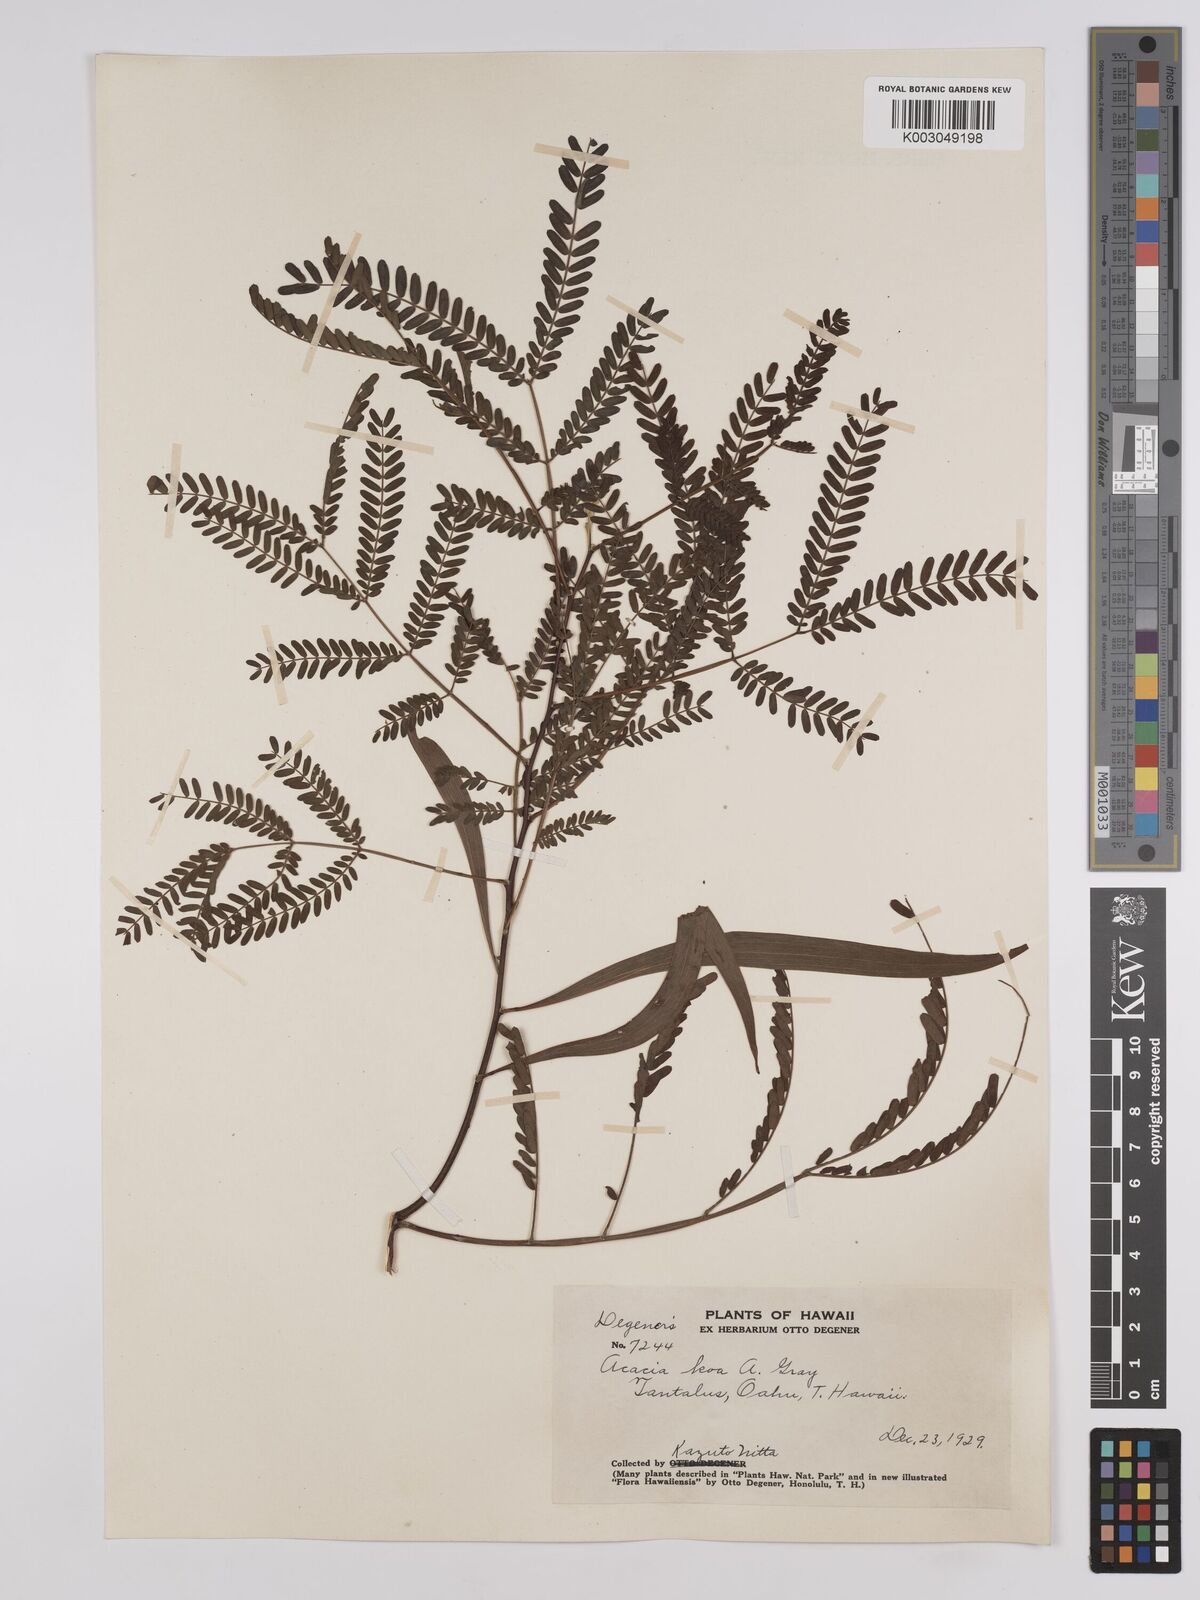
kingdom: Plantae
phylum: Tracheophyta
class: Magnoliopsida
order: Fabales
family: Fabaceae
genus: Acacia
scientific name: Acacia koa
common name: Gray koa
